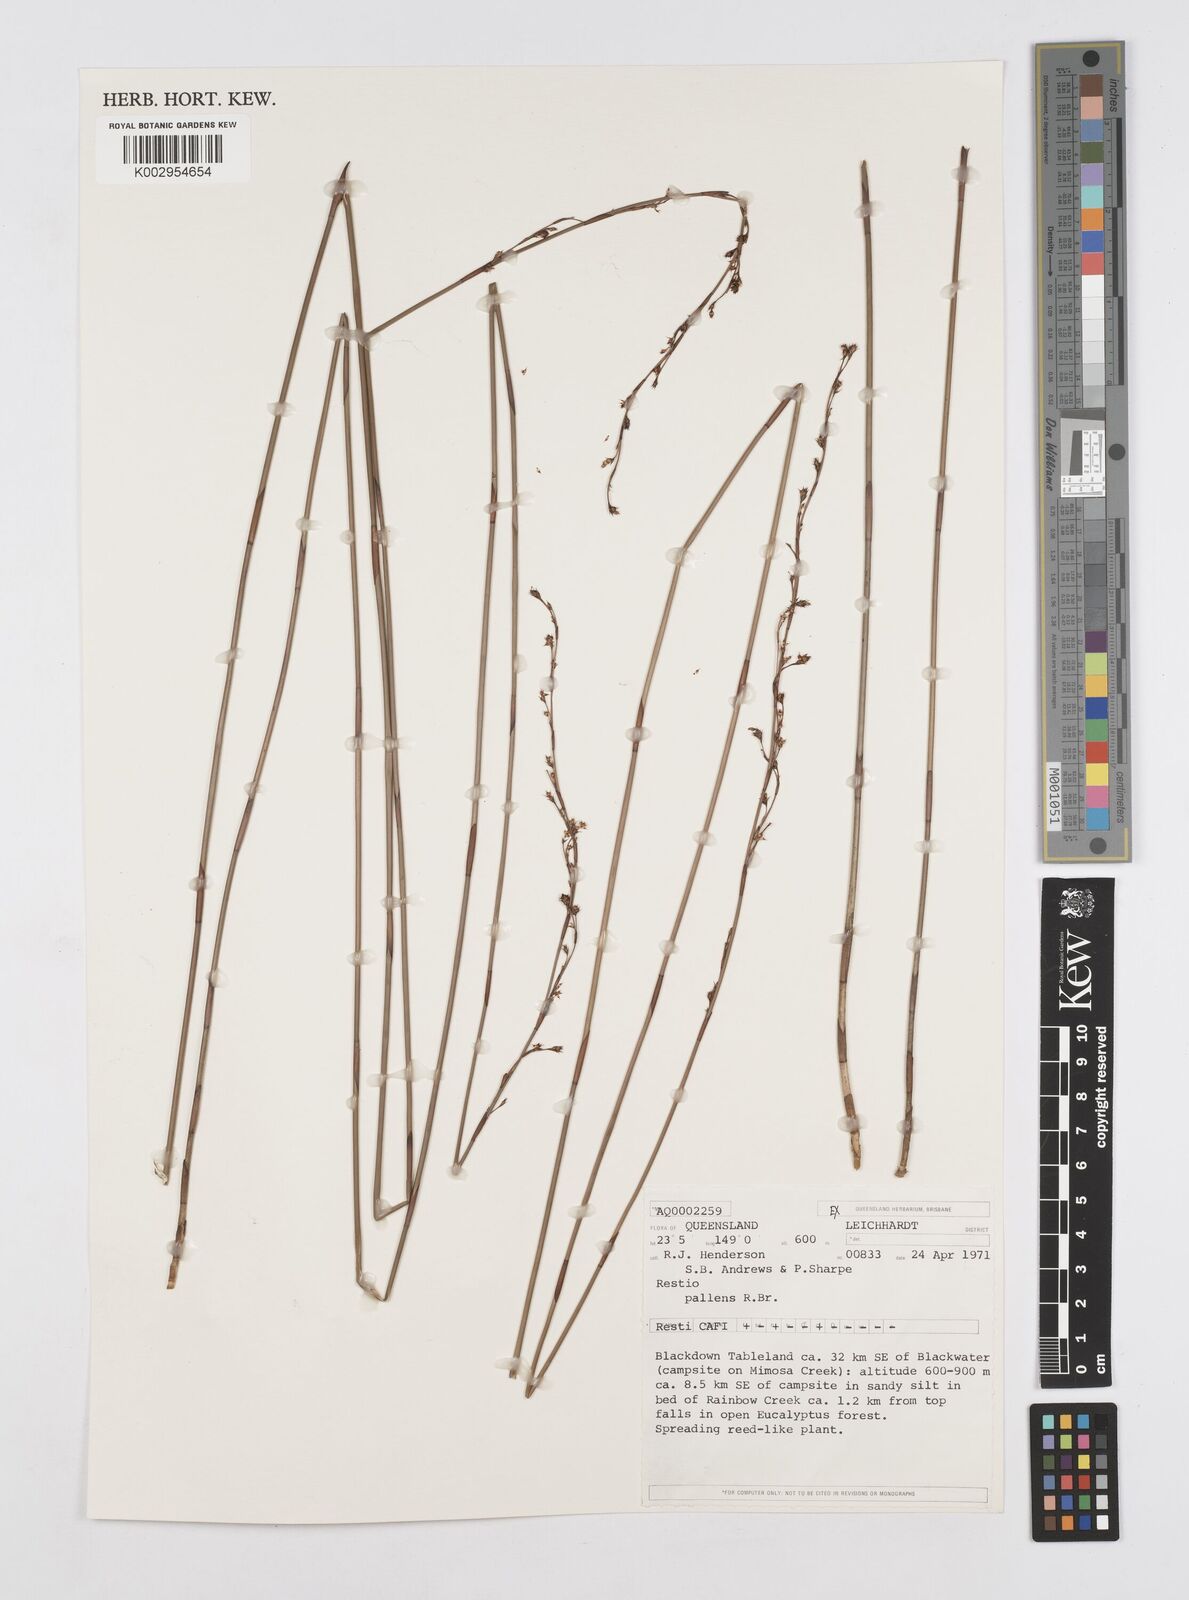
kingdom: Plantae
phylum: Tracheophyta
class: Liliopsida
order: Poales
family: Restionaceae
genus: Baloskion
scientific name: Baloskion pallens
